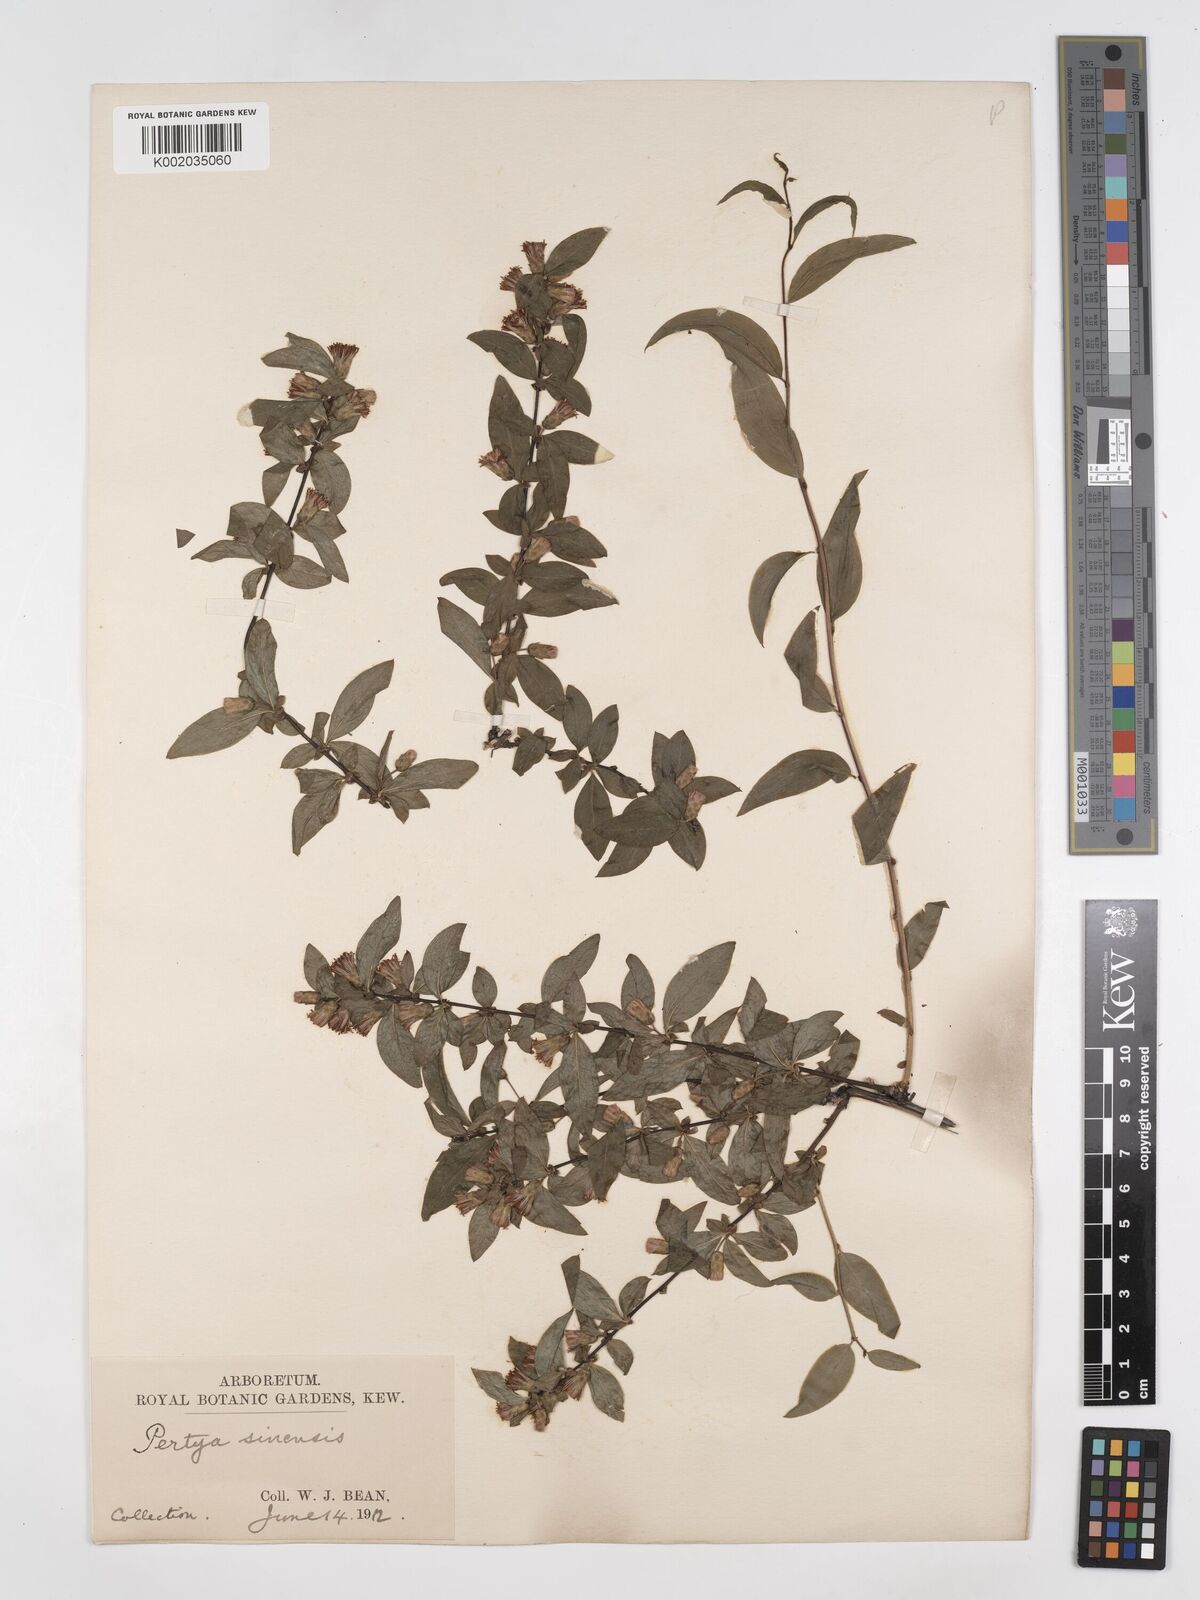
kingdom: Plantae
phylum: Tracheophyta
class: Magnoliopsida
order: Asterales
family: Asteraceae
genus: Pertya
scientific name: Pertya sinensis
